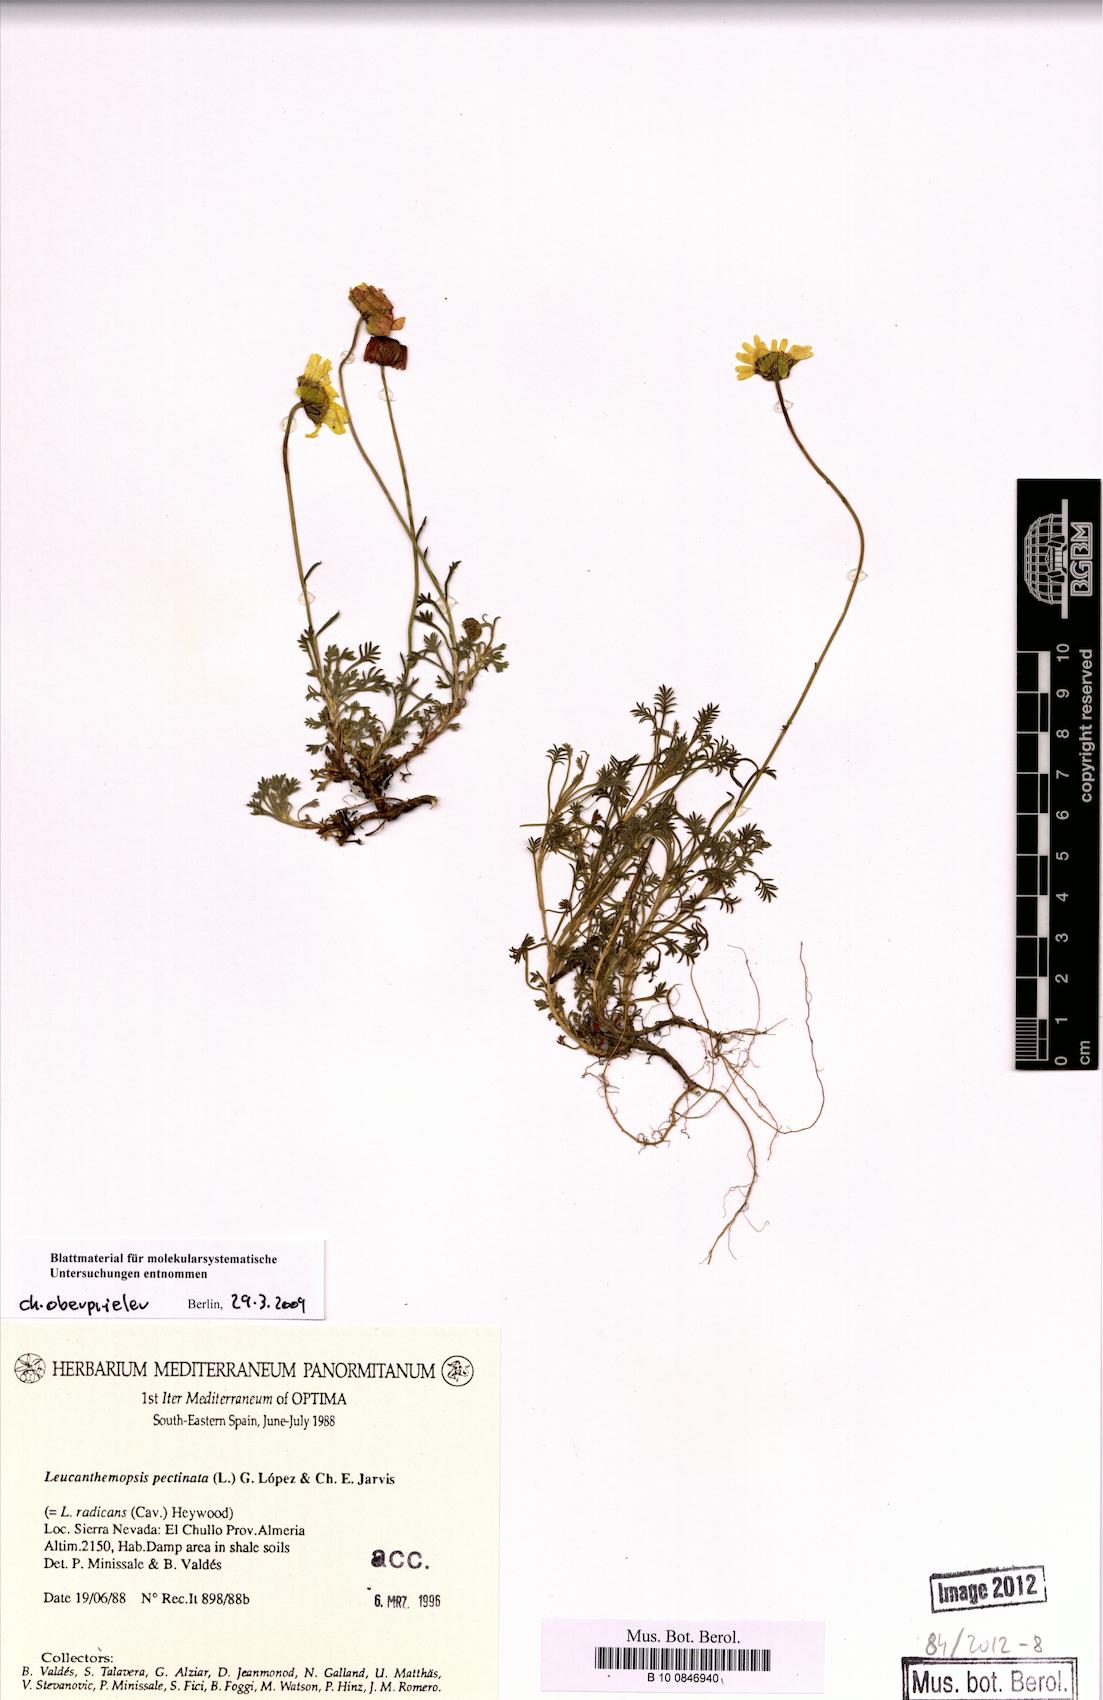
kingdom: Plantae
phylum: Tracheophyta
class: Magnoliopsida
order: Asterales
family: Asteraceae
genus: Leucanthemopsis
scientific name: Leucanthemopsis pectinata
